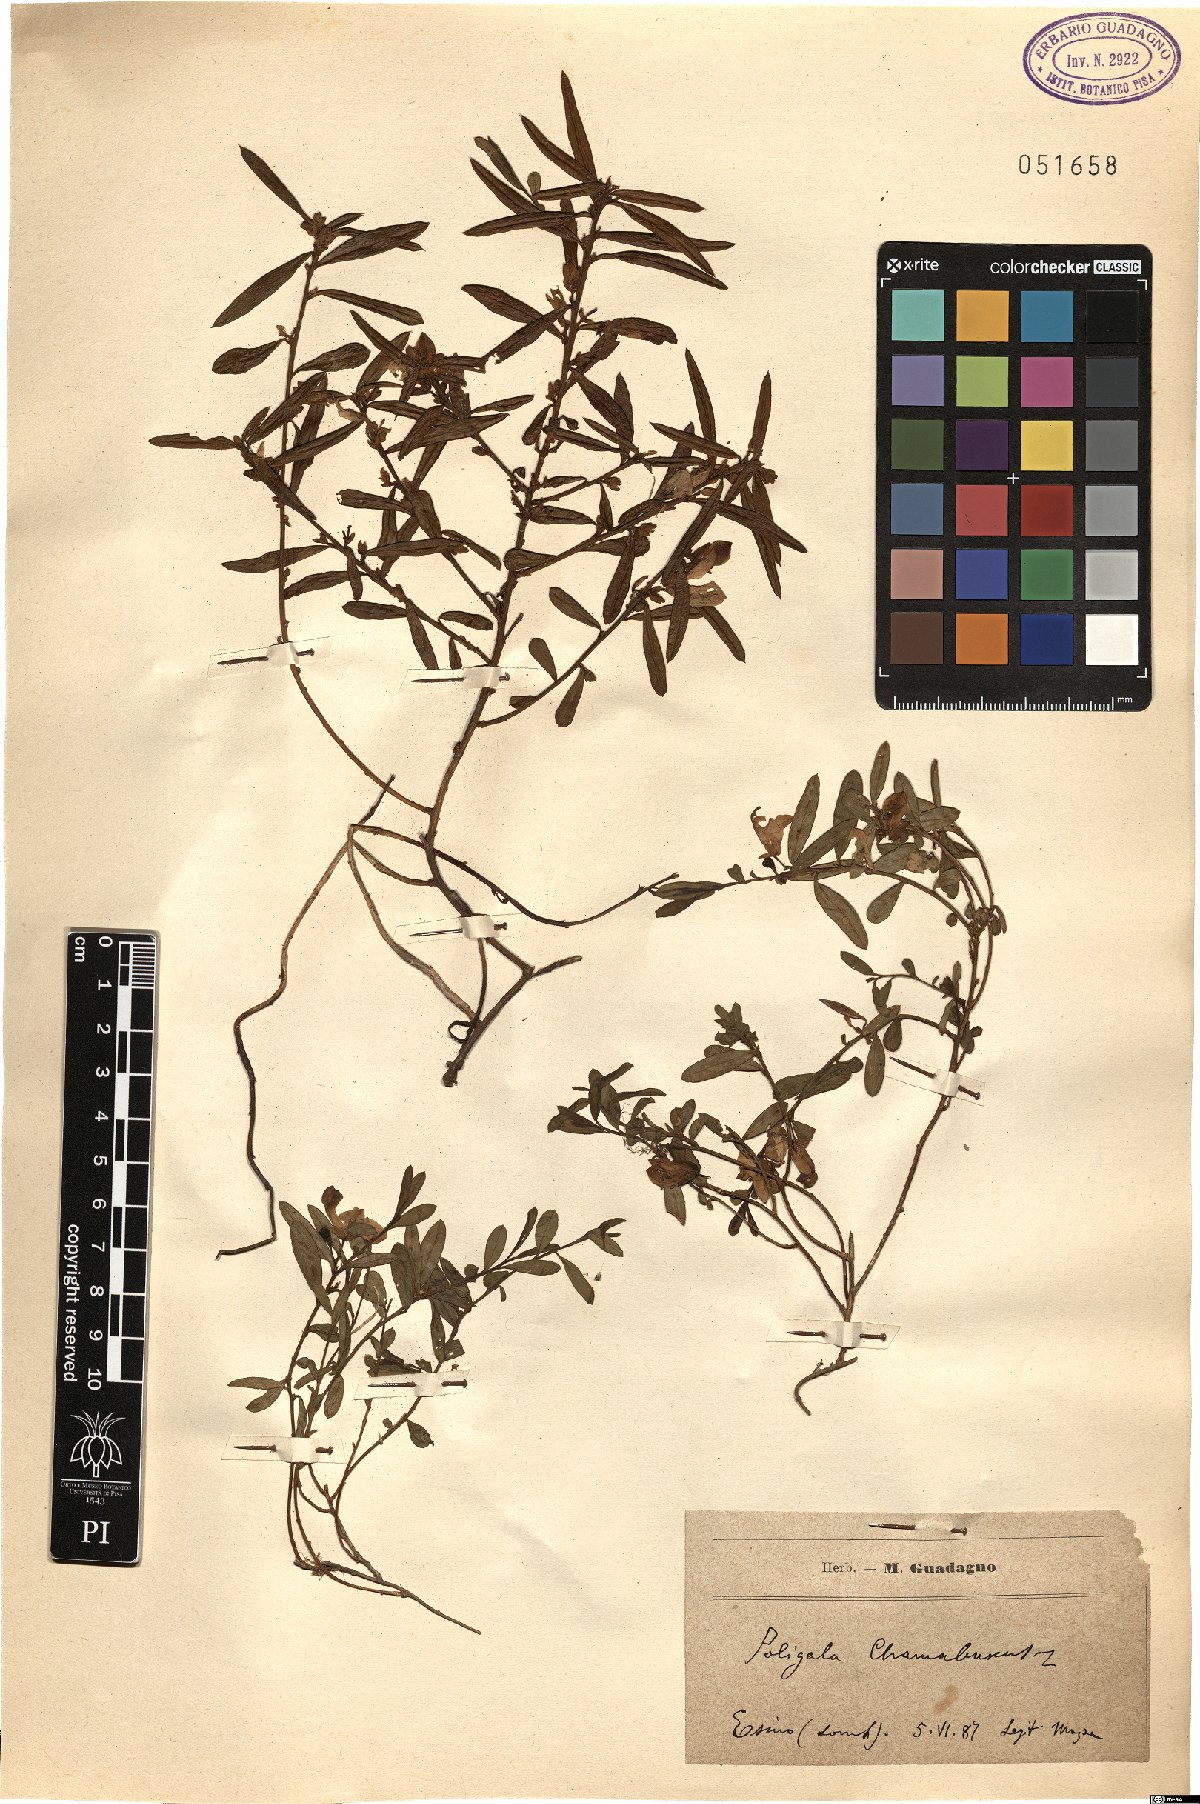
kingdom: Plantae
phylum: Tracheophyta
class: Magnoliopsida
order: Fabales
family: Polygalaceae
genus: Polygaloides
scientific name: Polygaloides chamaebuxus
